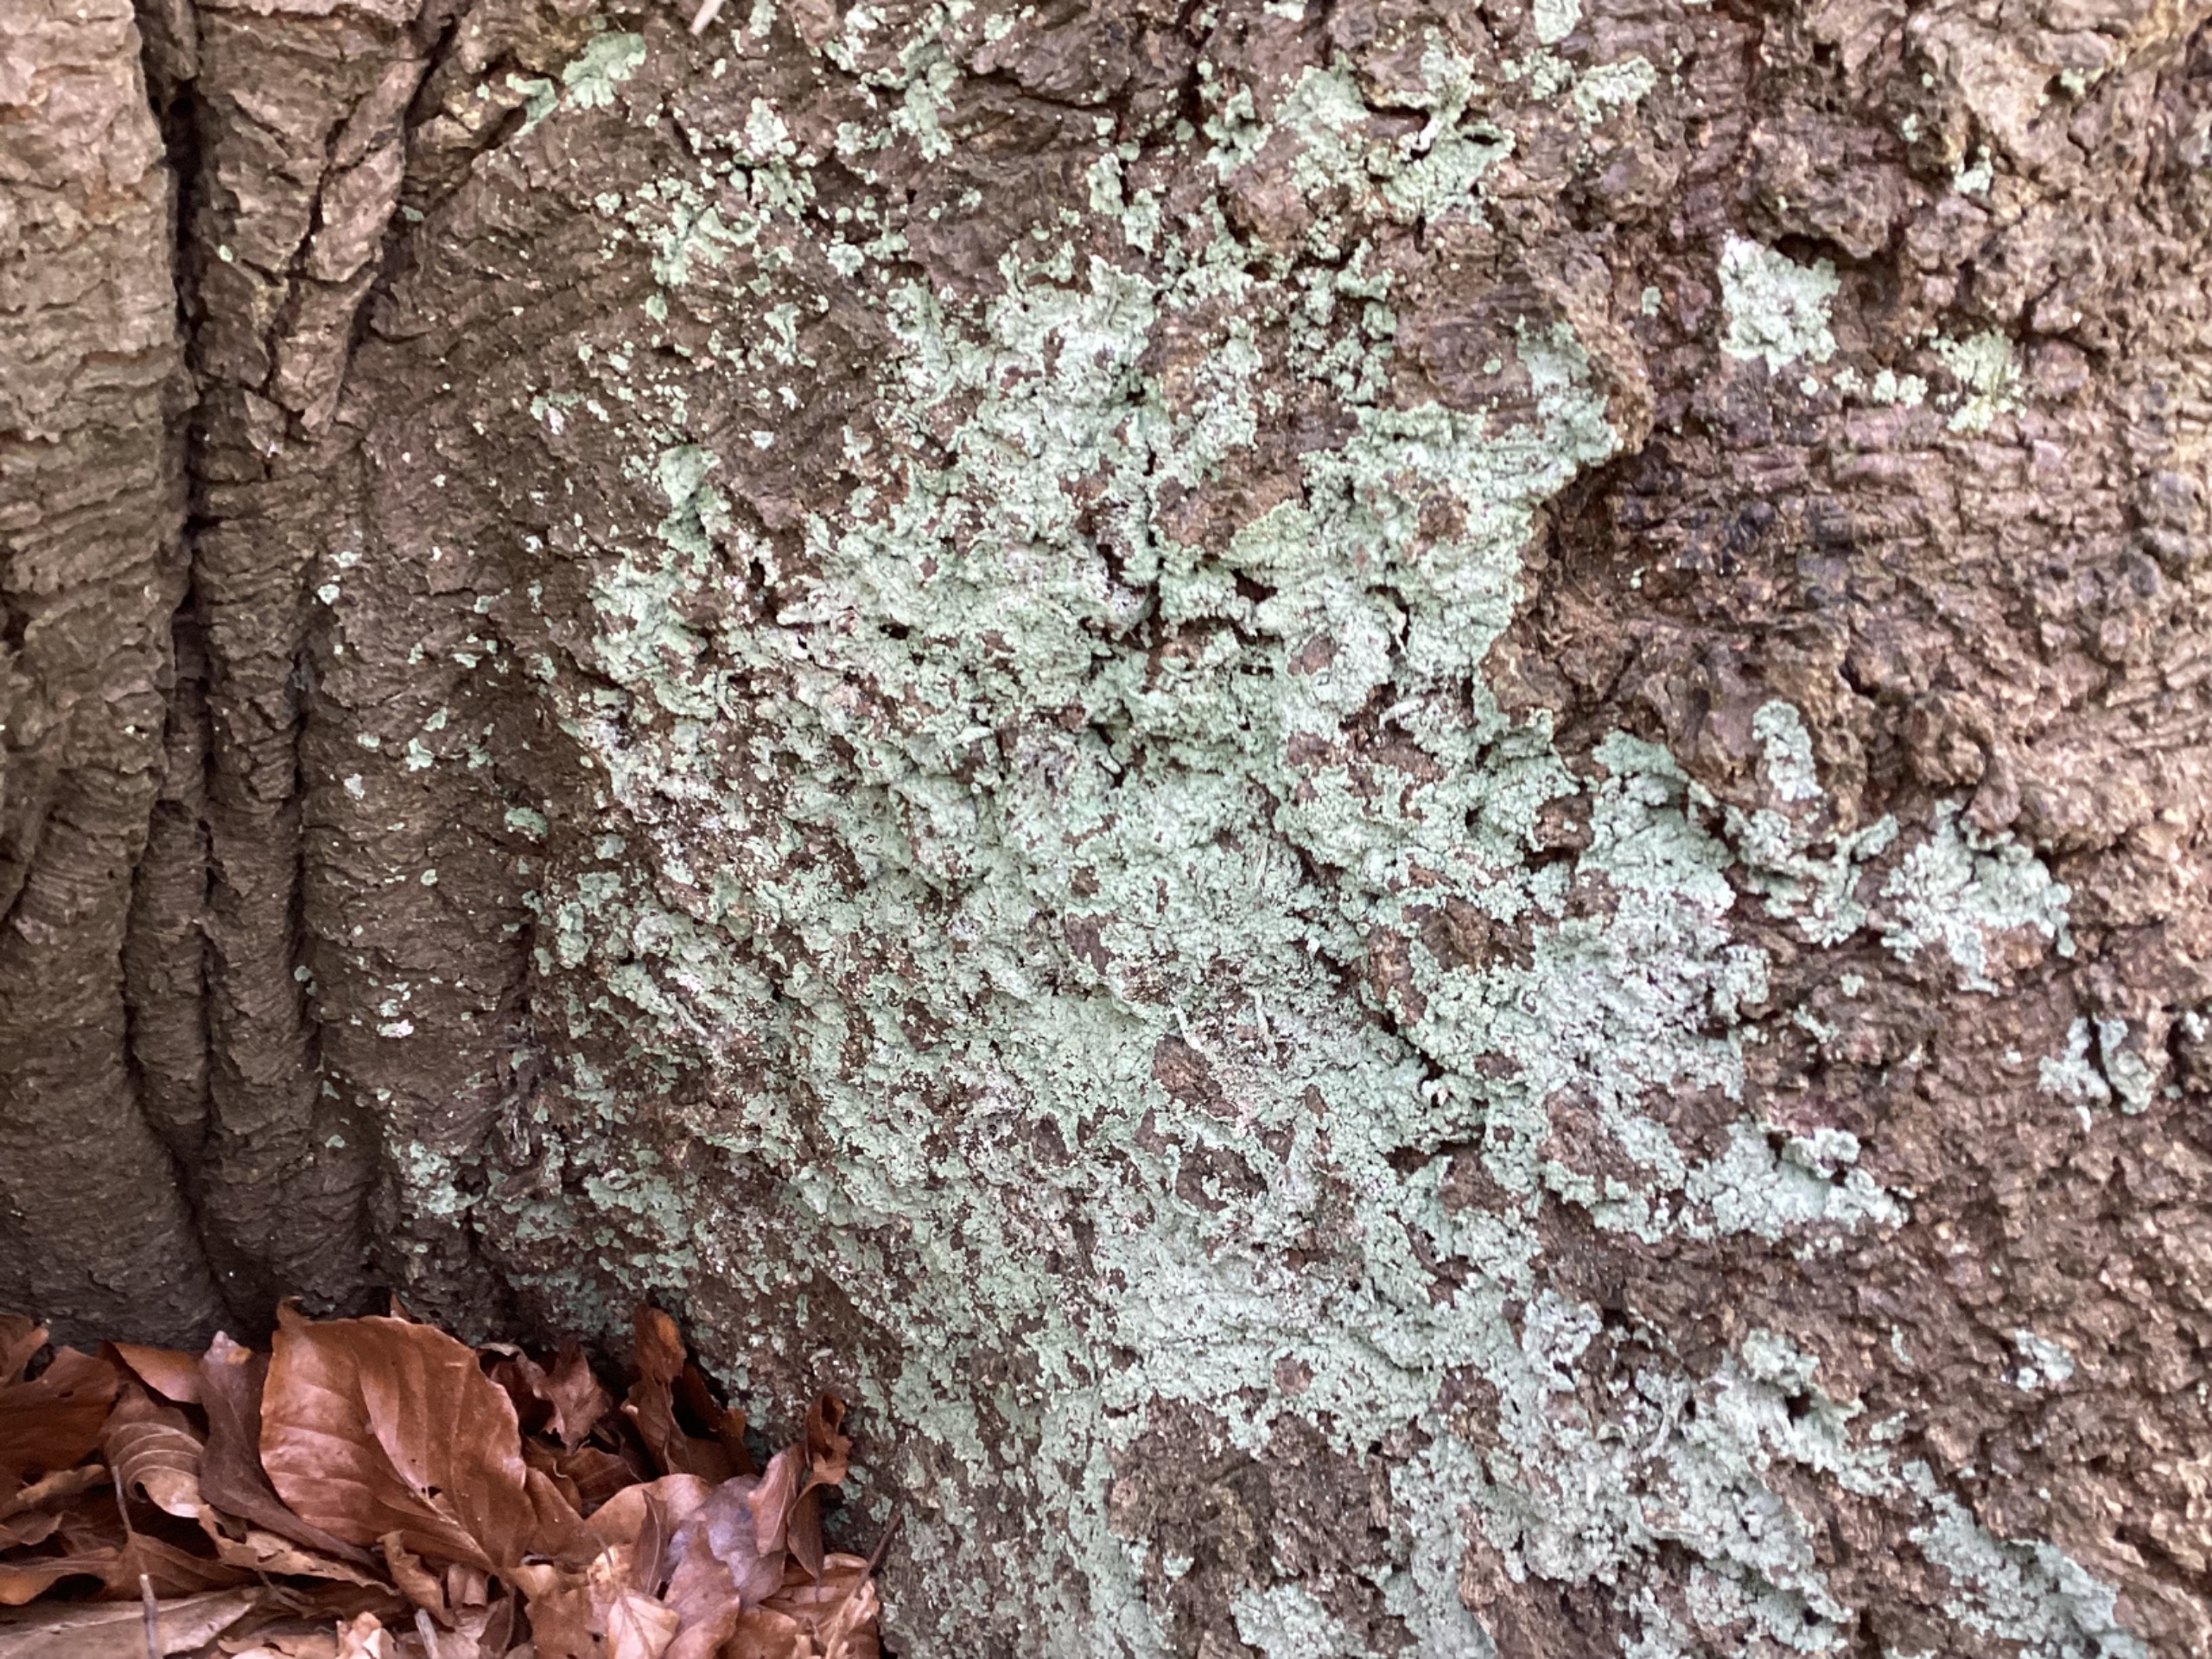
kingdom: Fungi
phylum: Ascomycota
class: Lecanoromycetes
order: Lecanorales
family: Stereocaulaceae
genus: Lepraria
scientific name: Lepraria
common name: Støvlav
